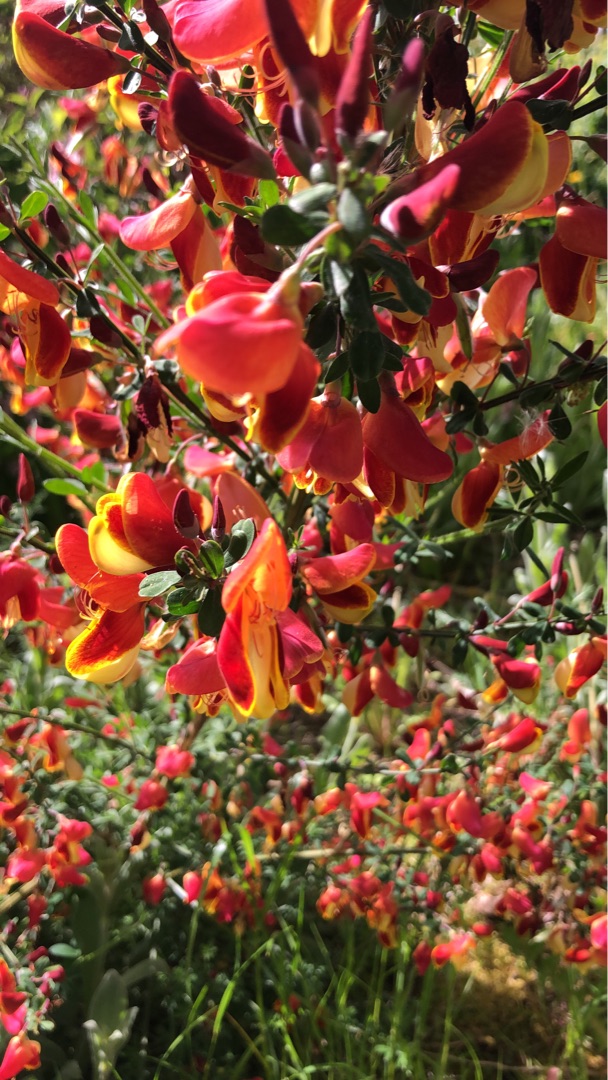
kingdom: Plantae
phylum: Tracheophyta
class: Magnoliopsida
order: Fabales
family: Fabaceae
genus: Cytisus
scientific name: Cytisus scoparius
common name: Almindelig gyvel
